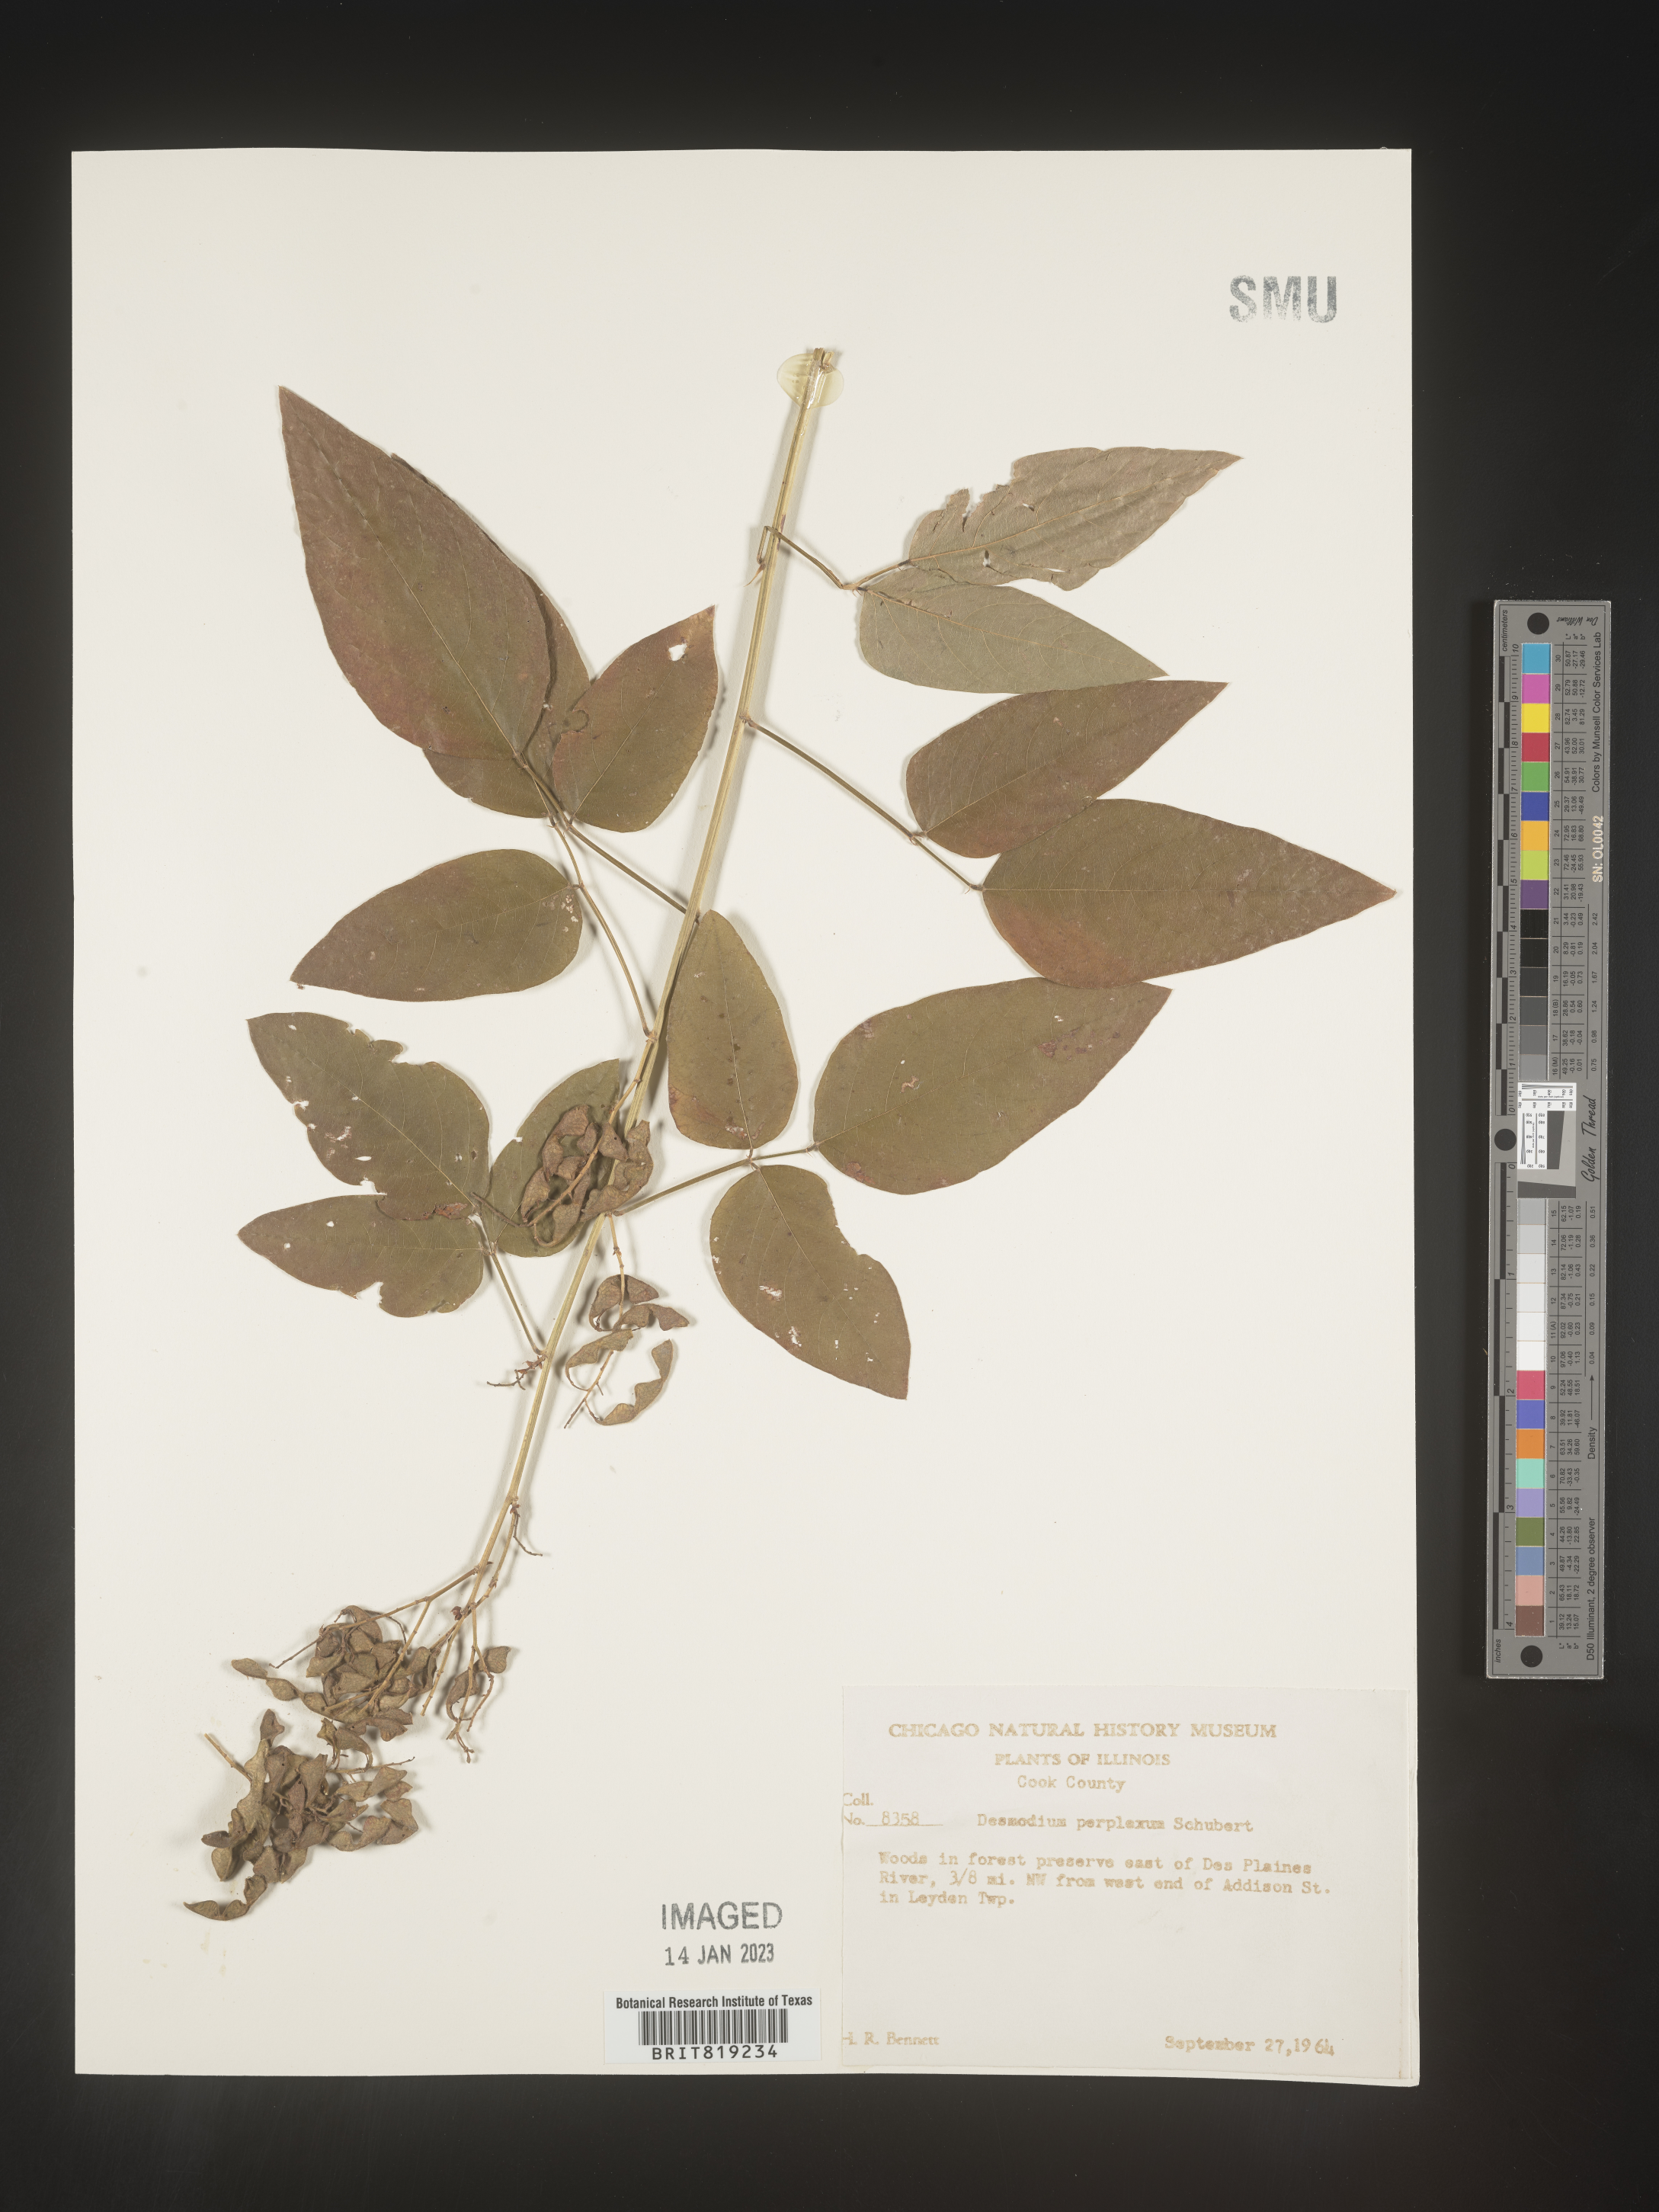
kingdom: Plantae
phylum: Tracheophyta
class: Magnoliopsida
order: Fabales
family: Fabaceae
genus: Desmodium
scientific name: Desmodium perplexum
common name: Perplexed tick trefoil
